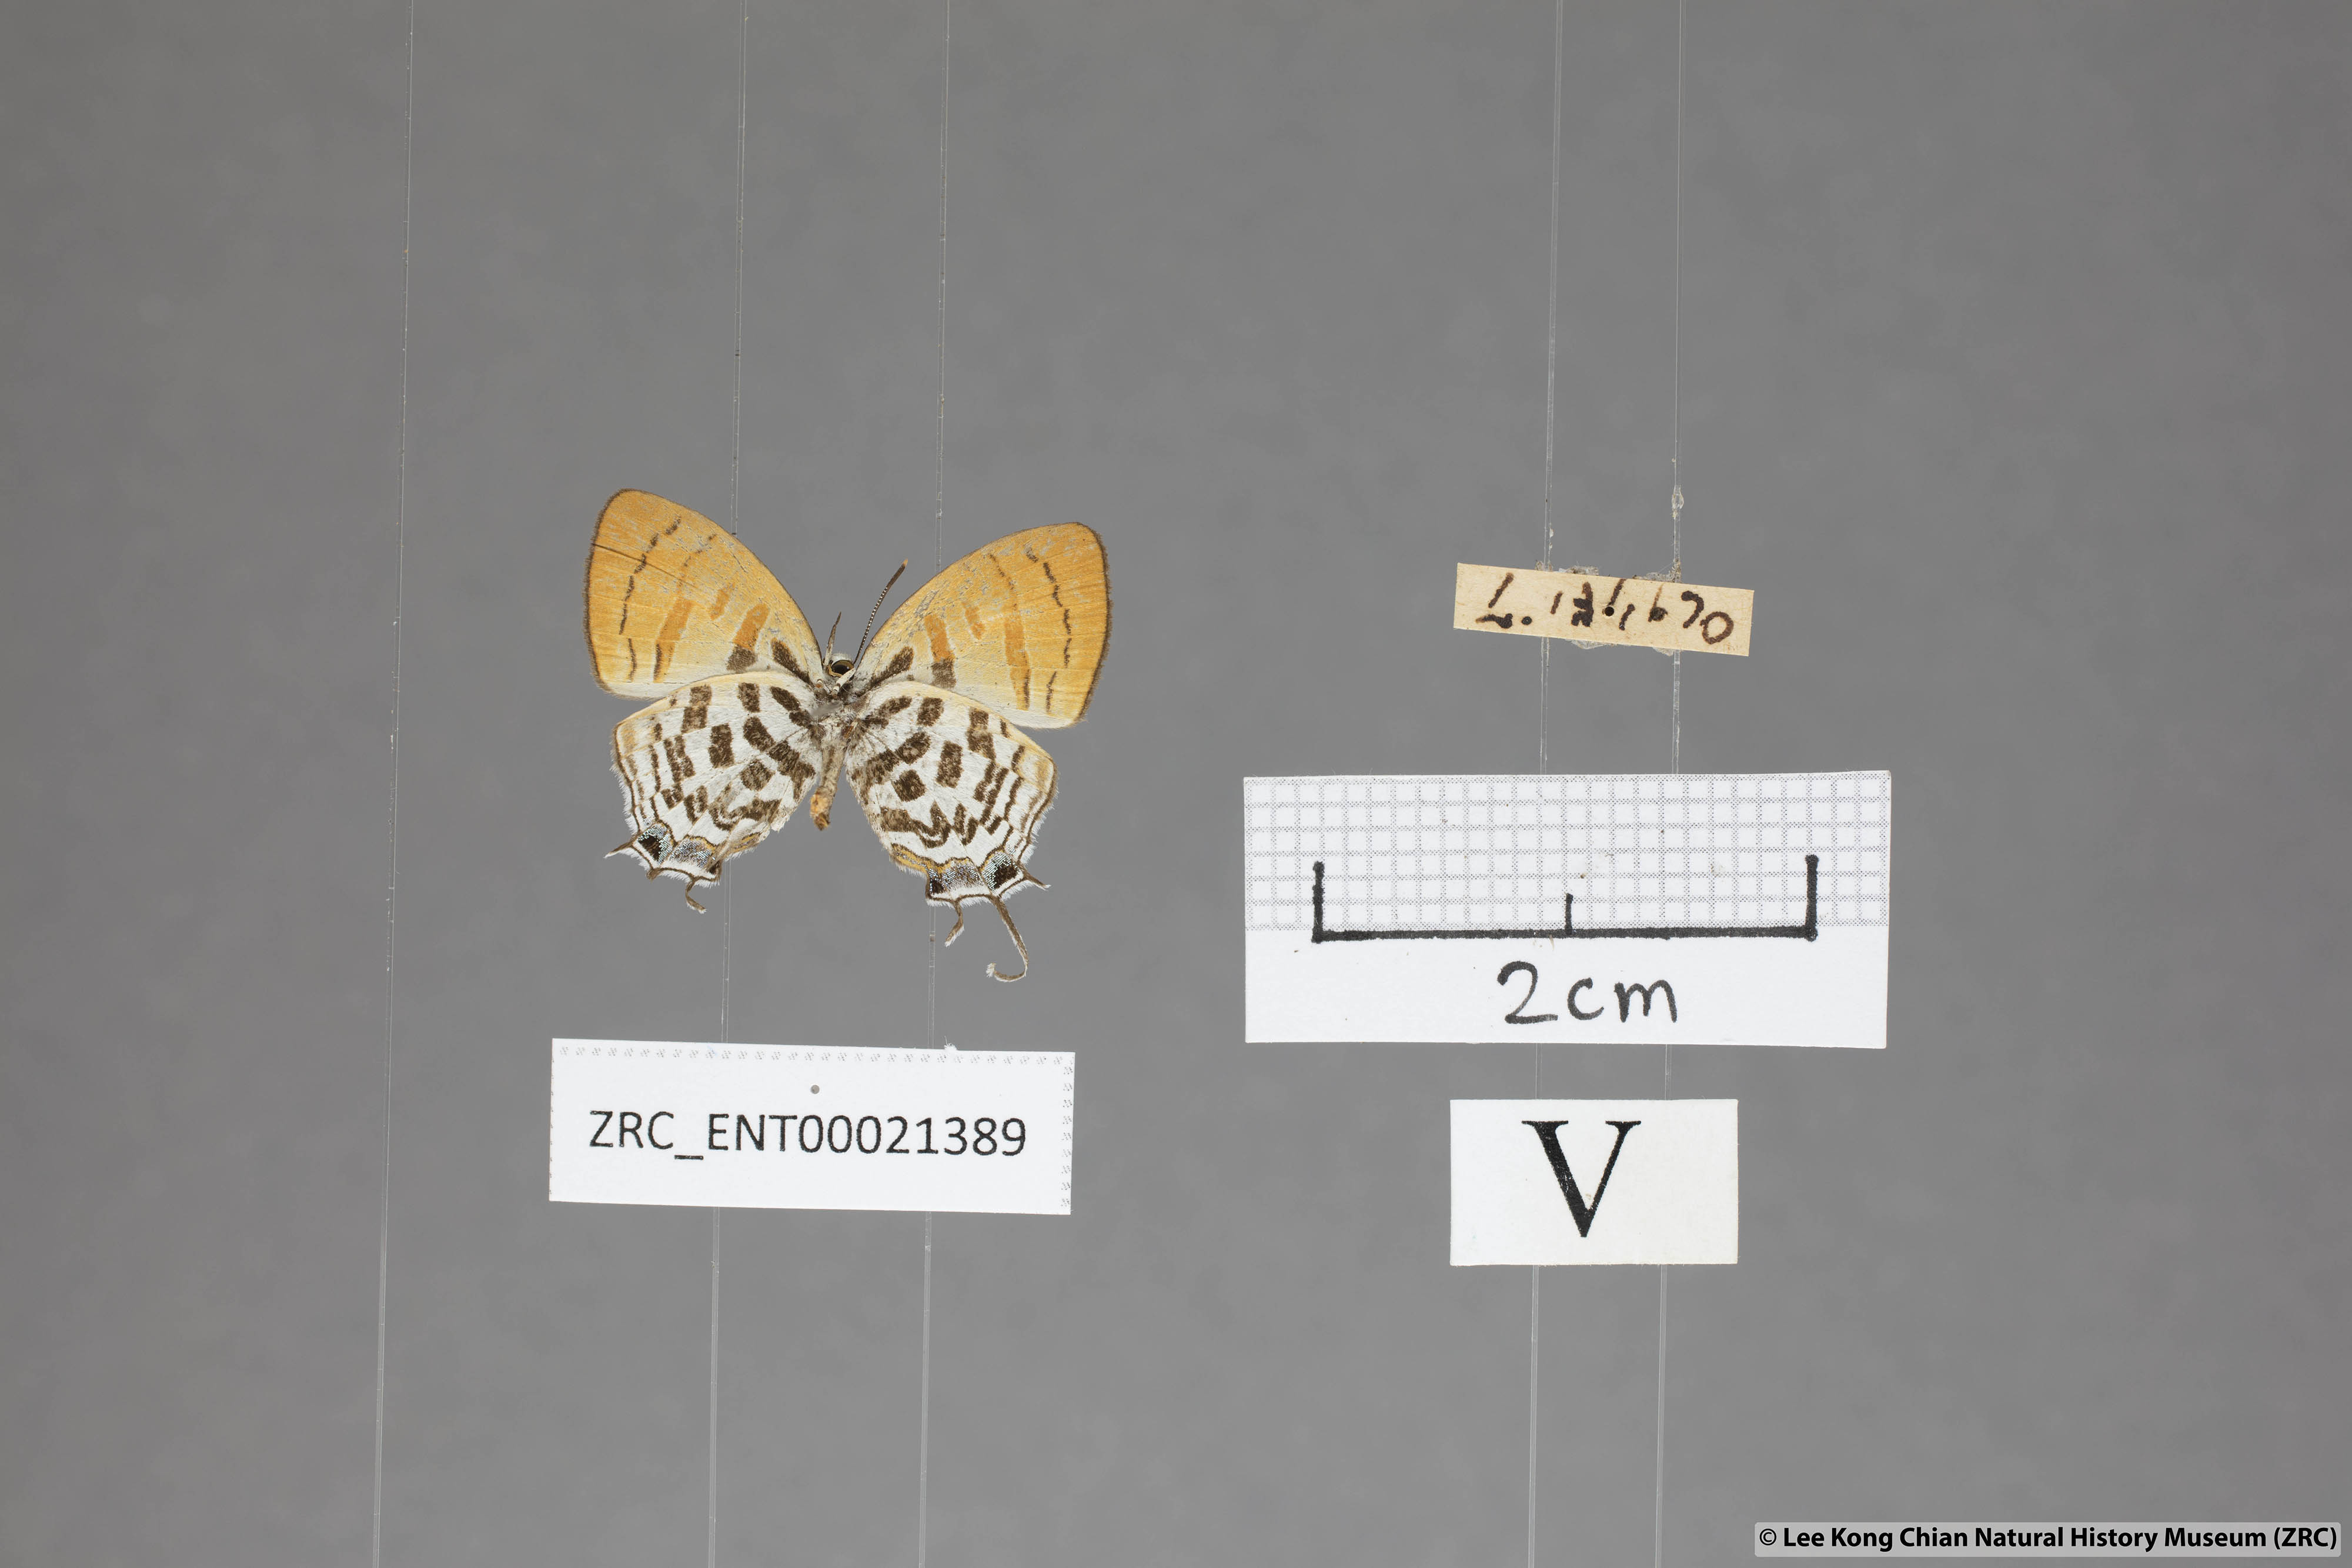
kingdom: Animalia
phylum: Arthropoda
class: Insecta
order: Lepidoptera
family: Lycaenidae
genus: Drupadia
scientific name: Drupadia rufotaenia
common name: Pygmy posy
